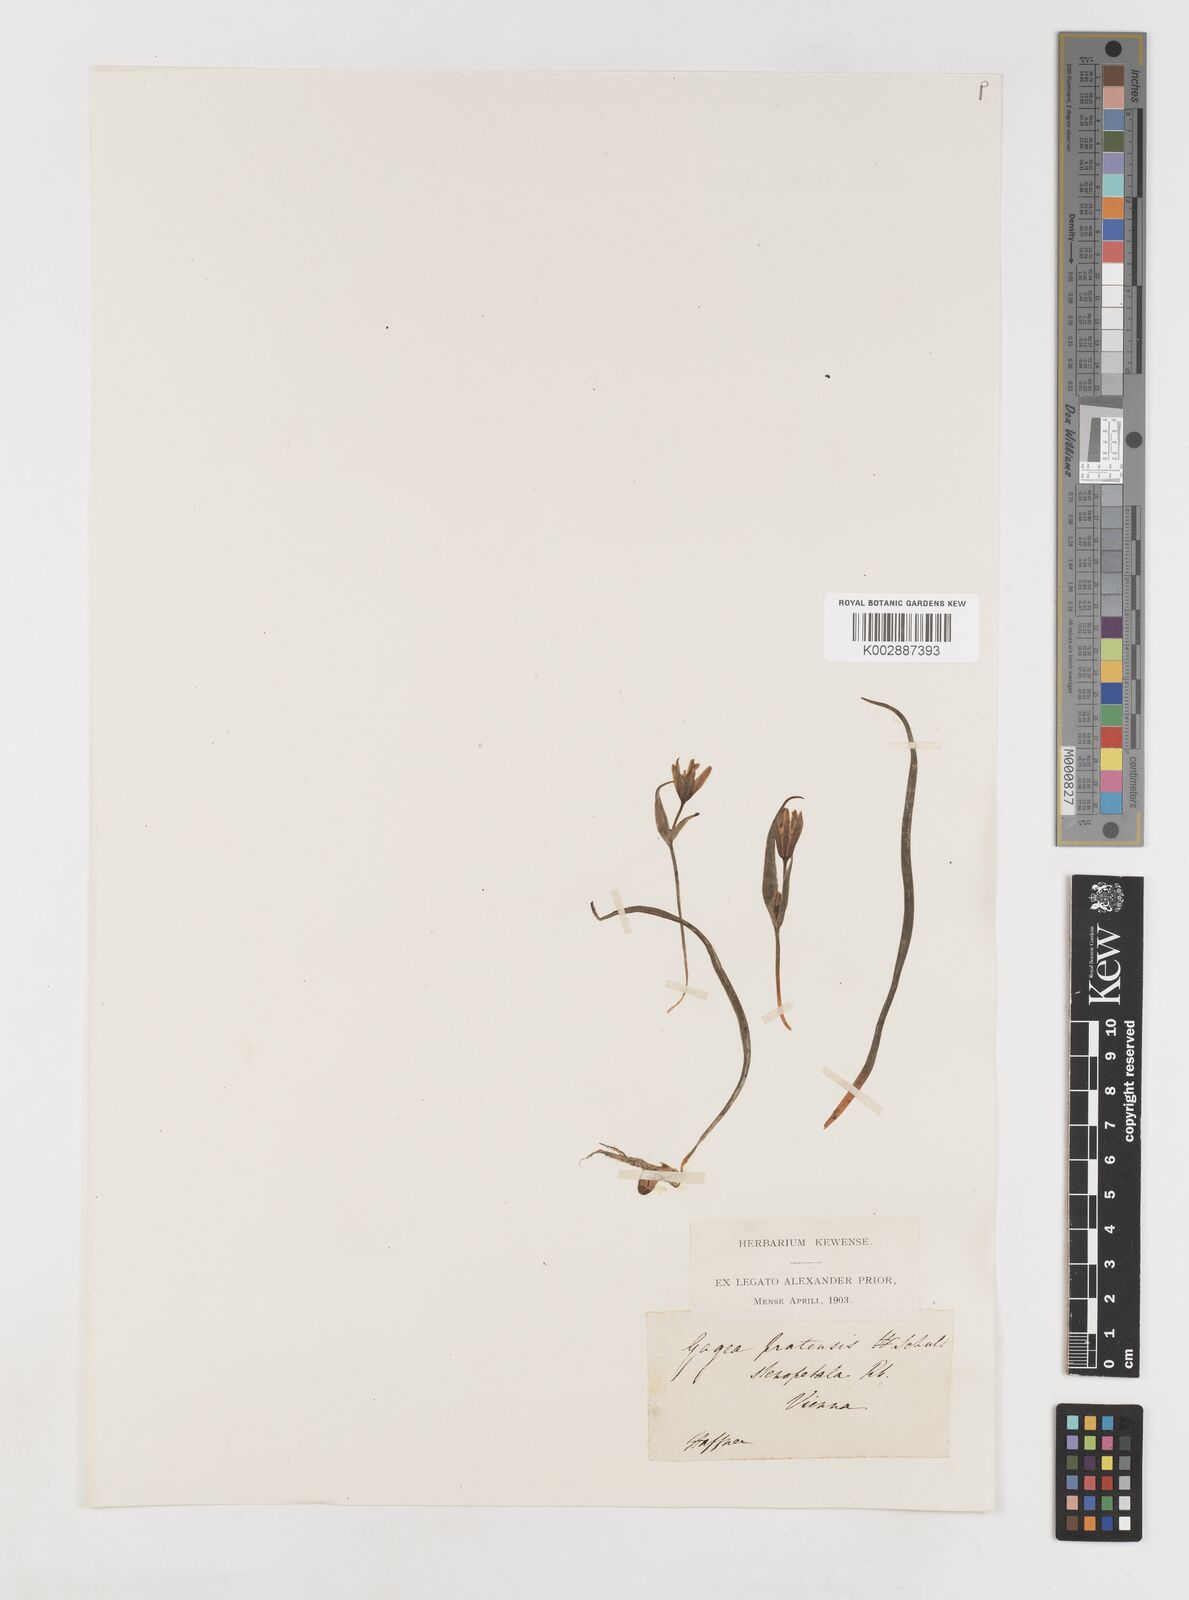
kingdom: Plantae
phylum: Tracheophyta
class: Liliopsida
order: Liliales
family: Liliaceae
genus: Gagea
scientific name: Gagea pratensis
